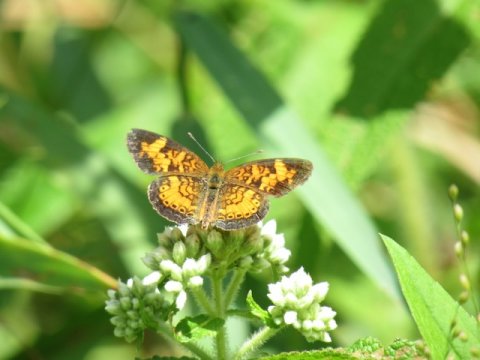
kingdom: Animalia
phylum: Arthropoda
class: Insecta
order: Lepidoptera
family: Nymphalidae
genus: Phyciodes
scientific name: Phyciodes tharos
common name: Pearl Crescent
